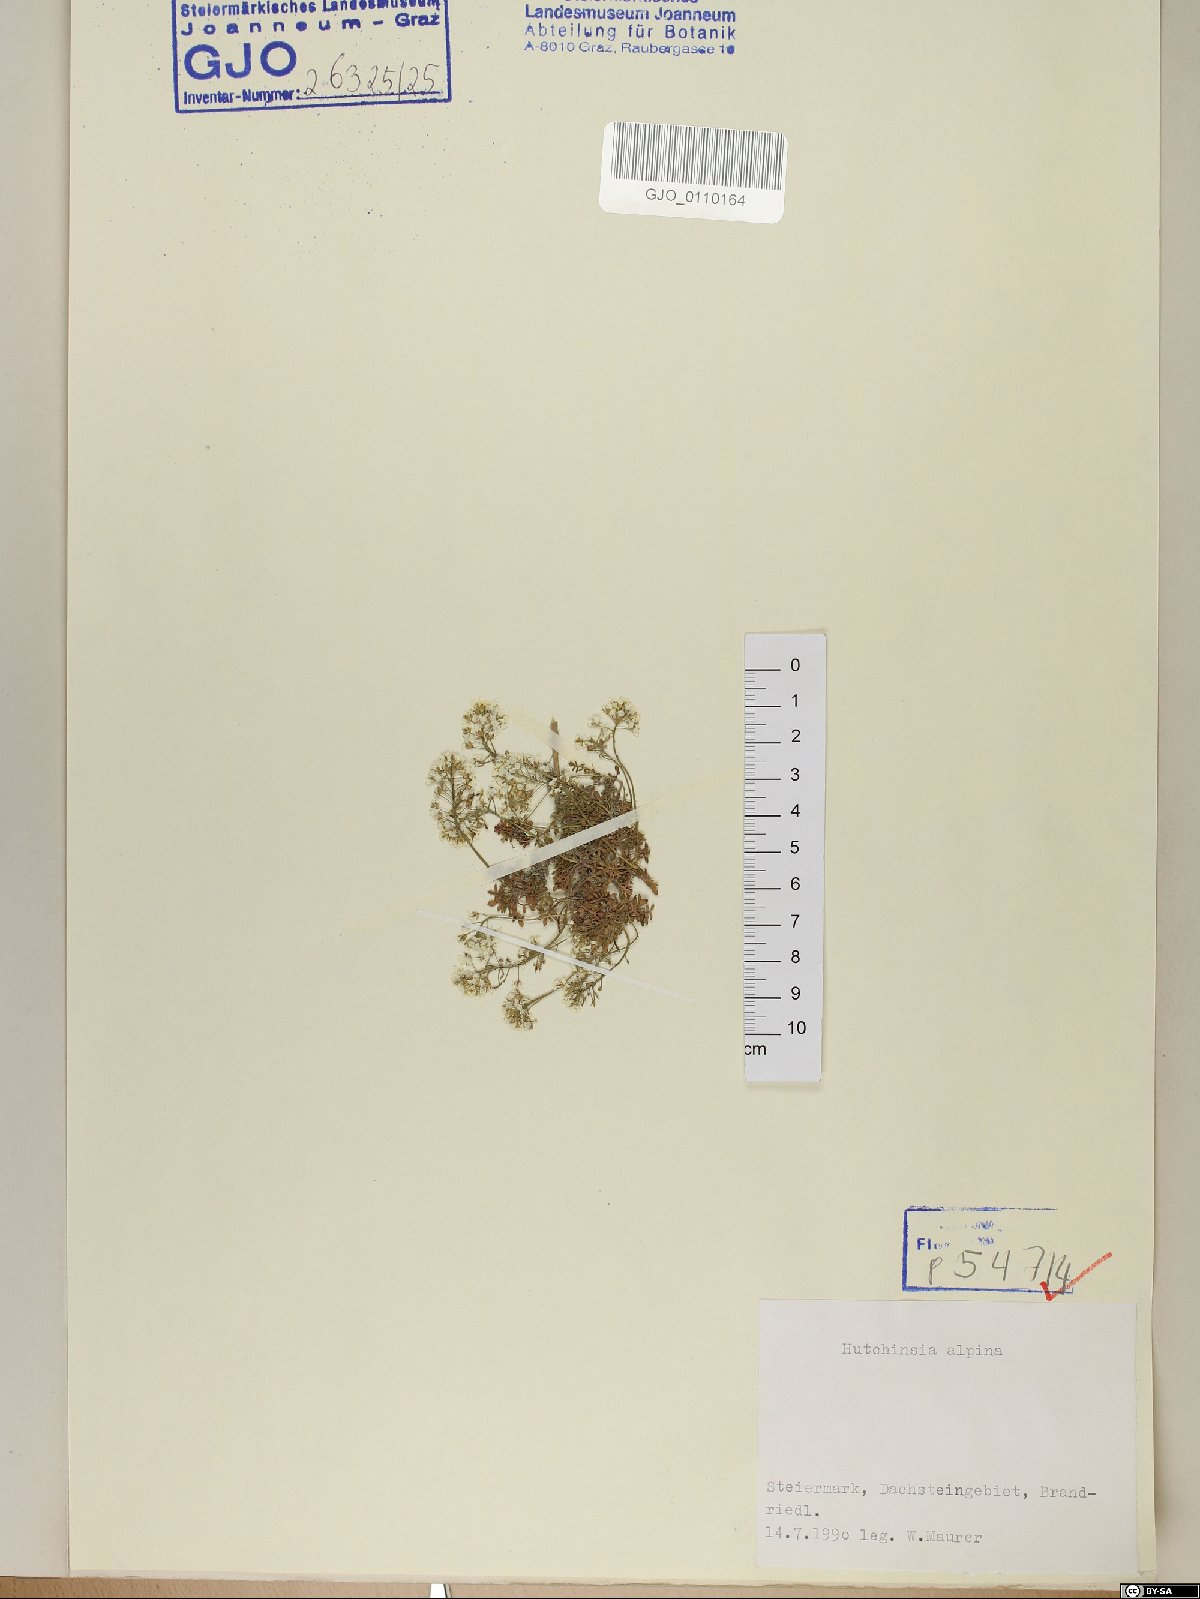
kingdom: Plantae
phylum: Tracheophyta
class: Magnoliopsida
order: Brassicales
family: Brassicaceae
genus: Hornungia
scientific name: Hornungia alpina
